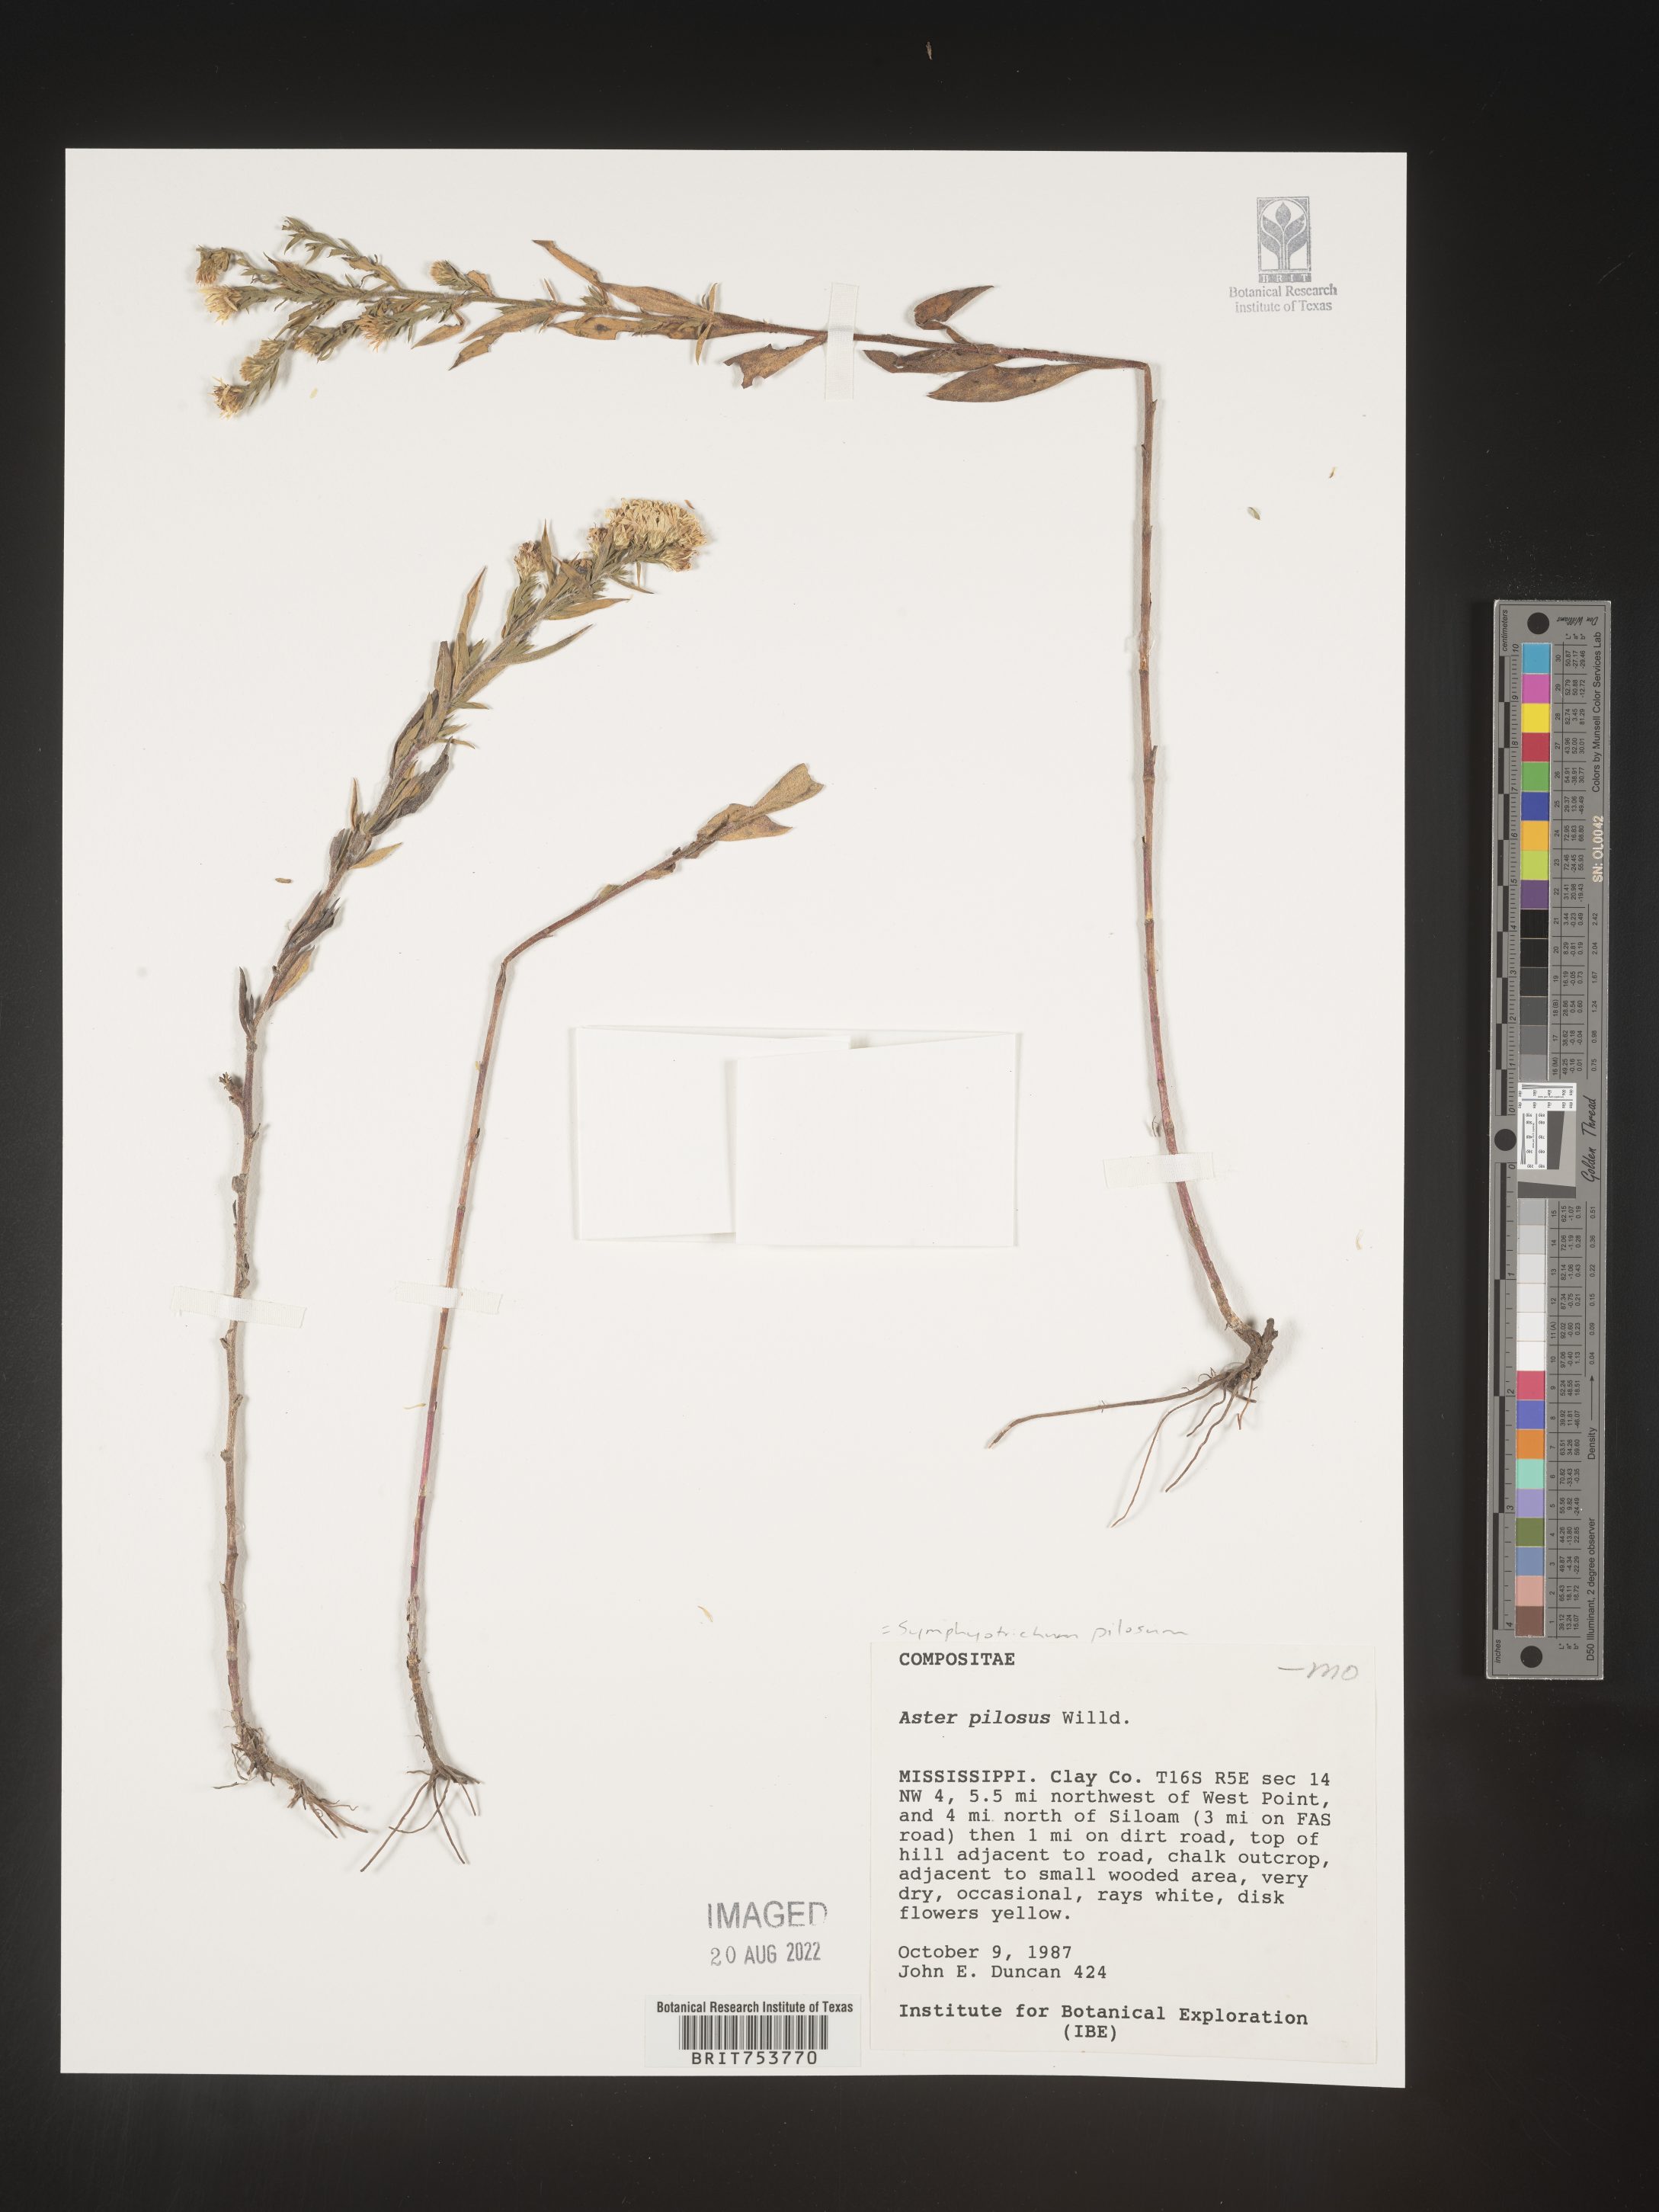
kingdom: Plantae
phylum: Tracheophyta
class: Magnoliopsida
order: Asterales
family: Asteraceae
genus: Symphyotrichum
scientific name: Symphyotrichum pilosum
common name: Awl aster
